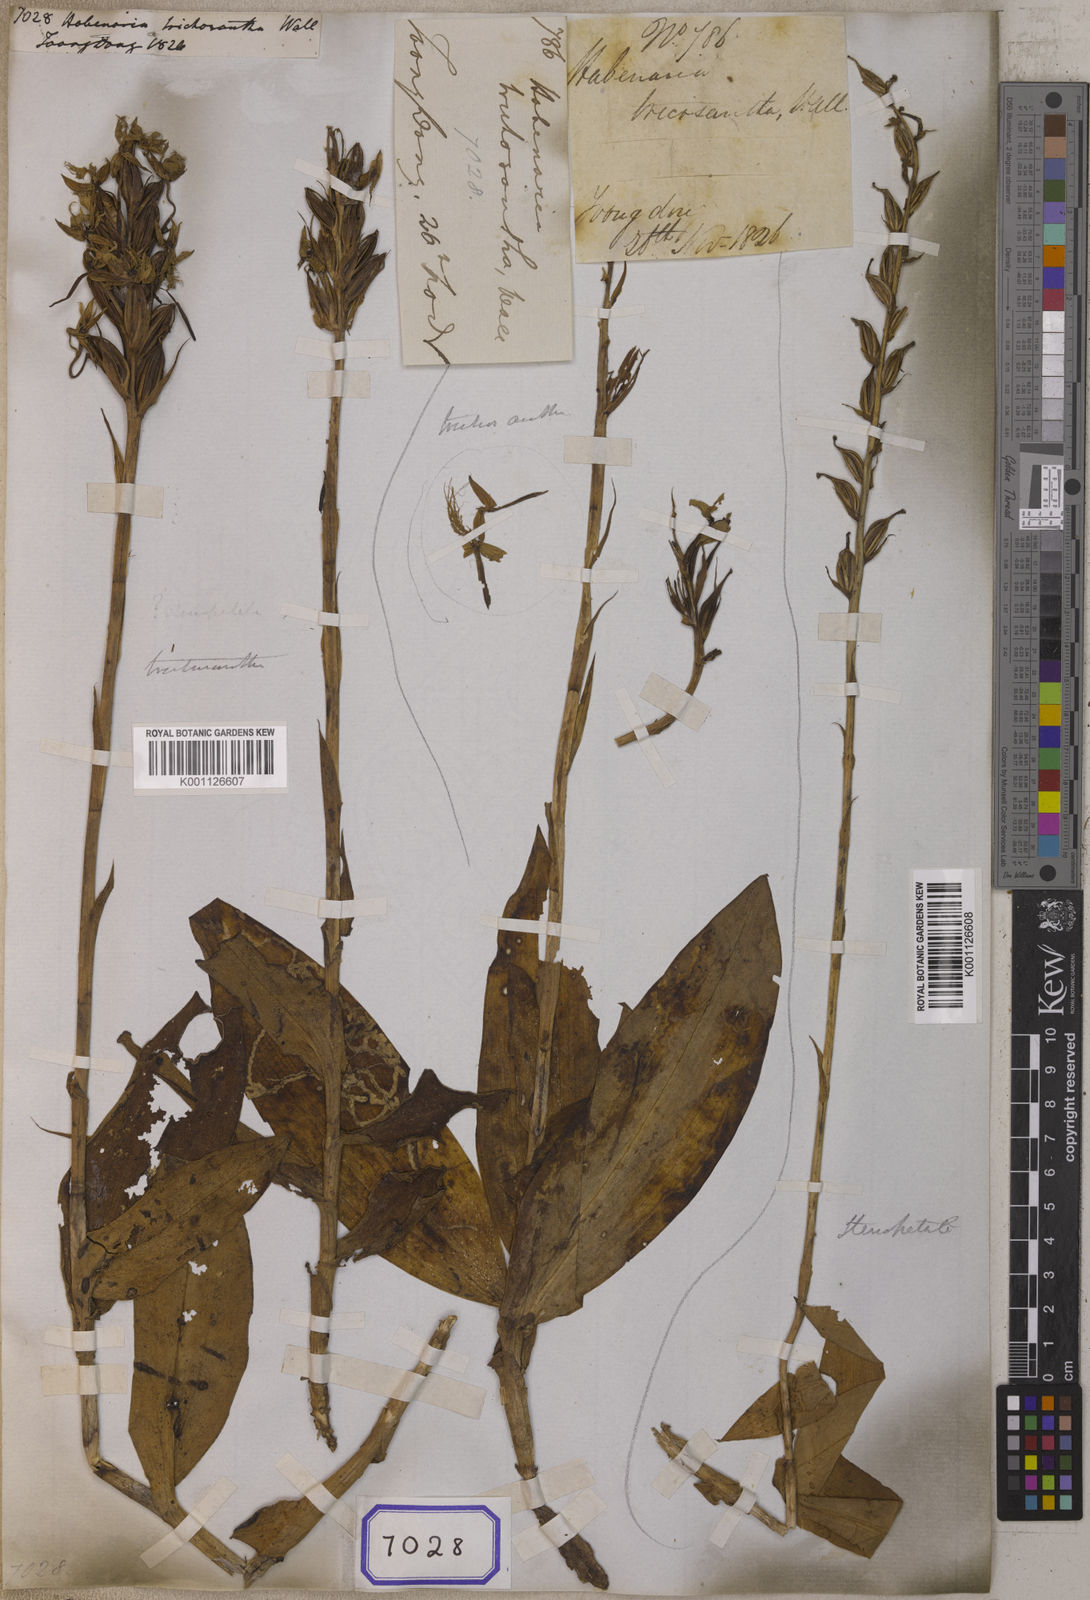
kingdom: Plantae
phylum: Tracheophyta
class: Liliopsida
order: Asparagales
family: Orchidaceae
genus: Habenaria
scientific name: Habenaria
